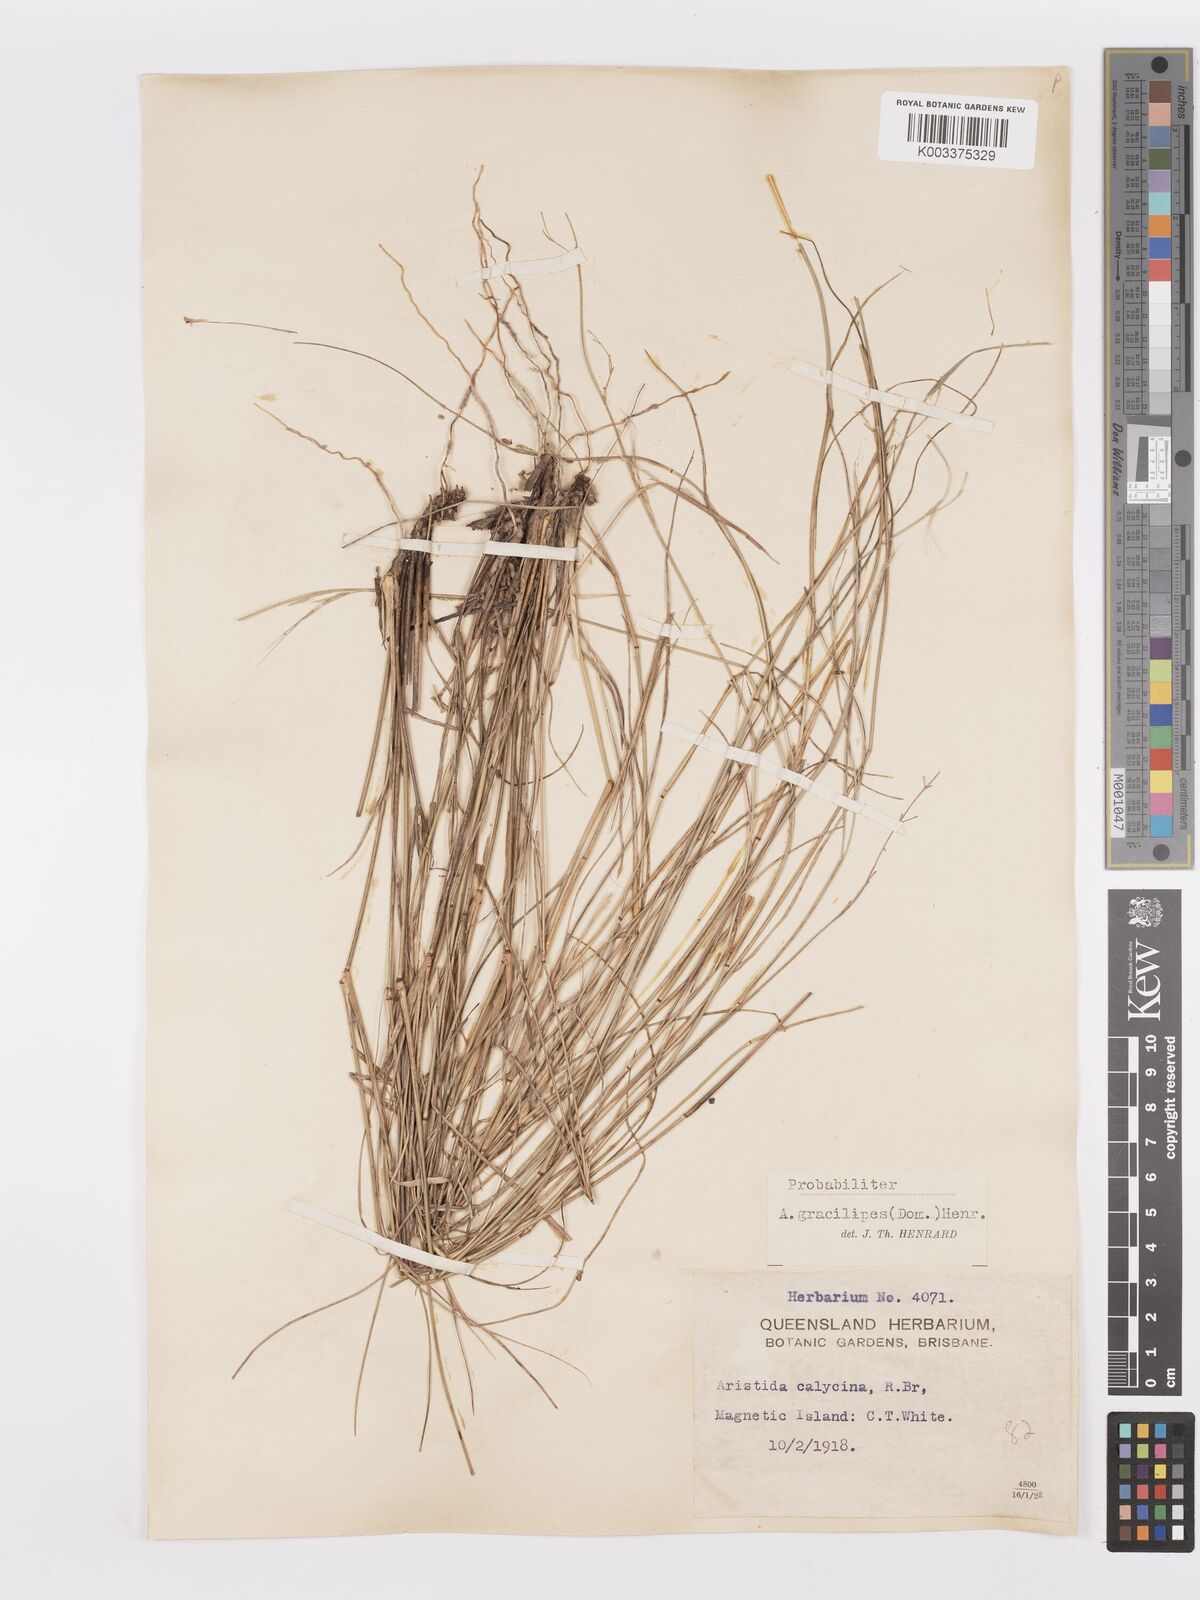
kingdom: Plantae
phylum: Tracheophyta
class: Liliopsida
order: Poales
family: Poaceae
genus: Aristida
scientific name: Aristida gracilipes
